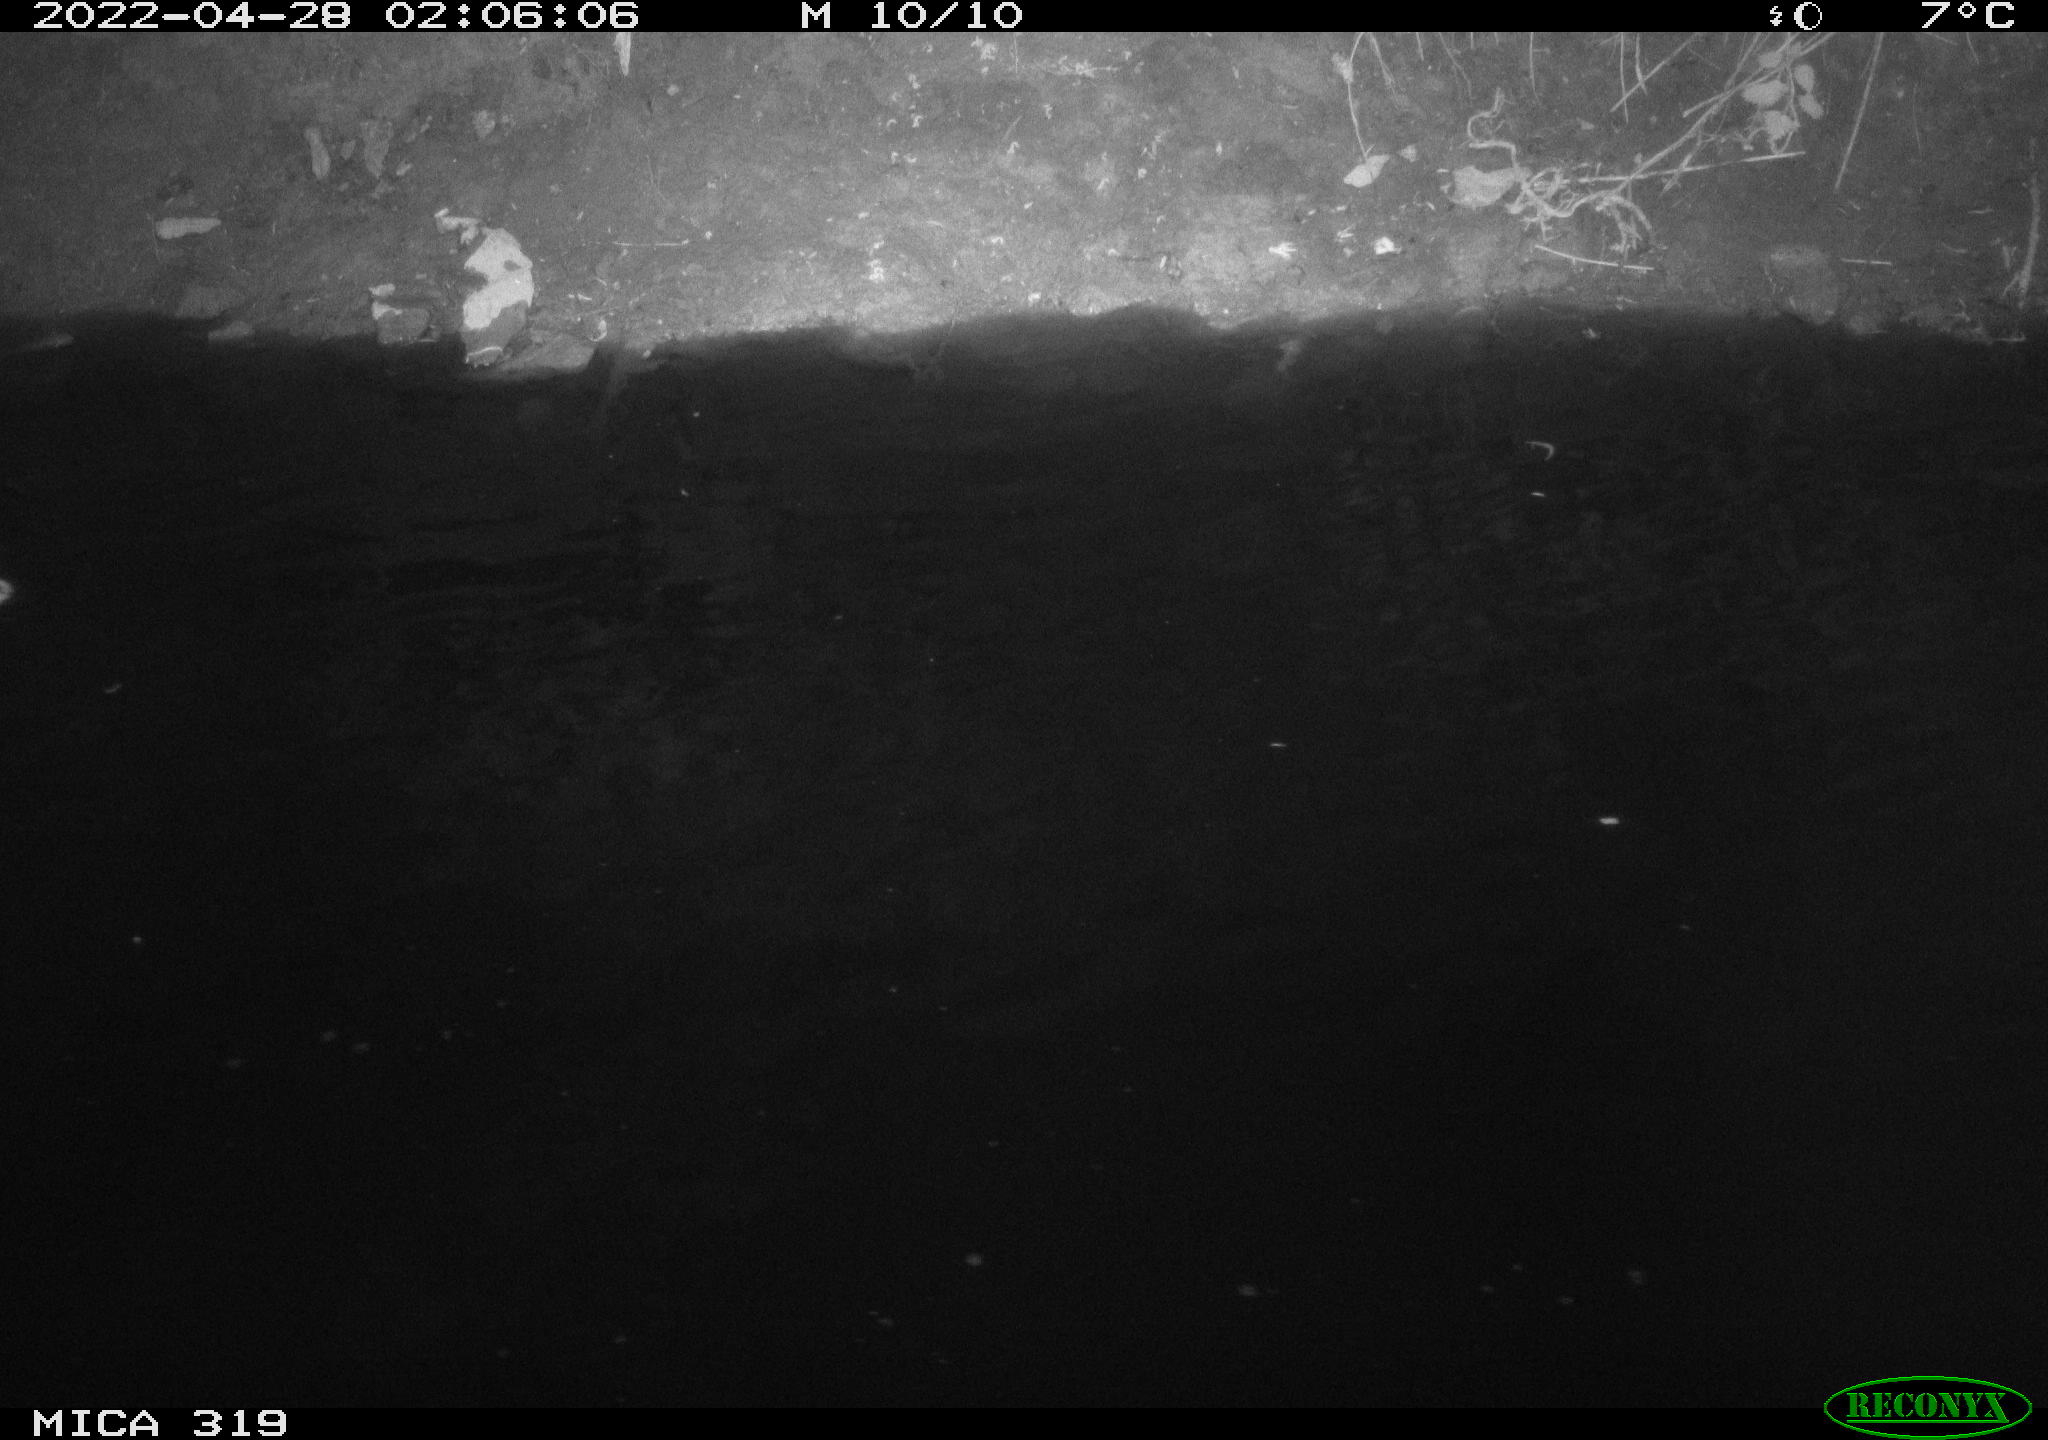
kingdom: Animalia
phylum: Chordata
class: Aves
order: Anseriformes
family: Anatidae
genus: Anas
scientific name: Anas platyrhynchos
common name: Mallard
